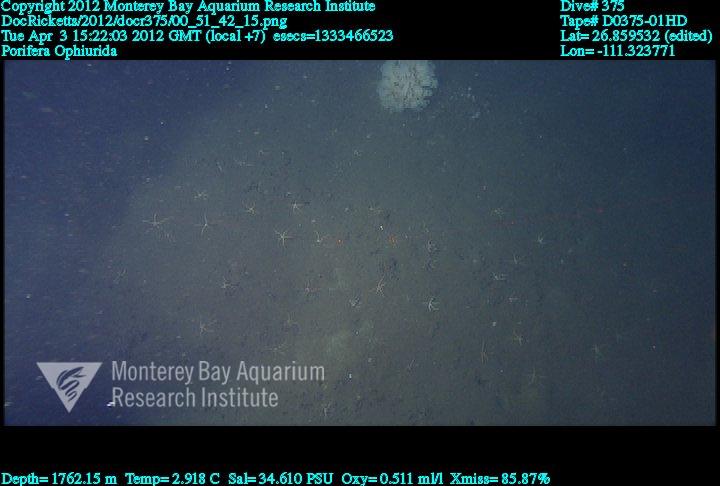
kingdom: Animalia
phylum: Porifera
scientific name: Porifera
